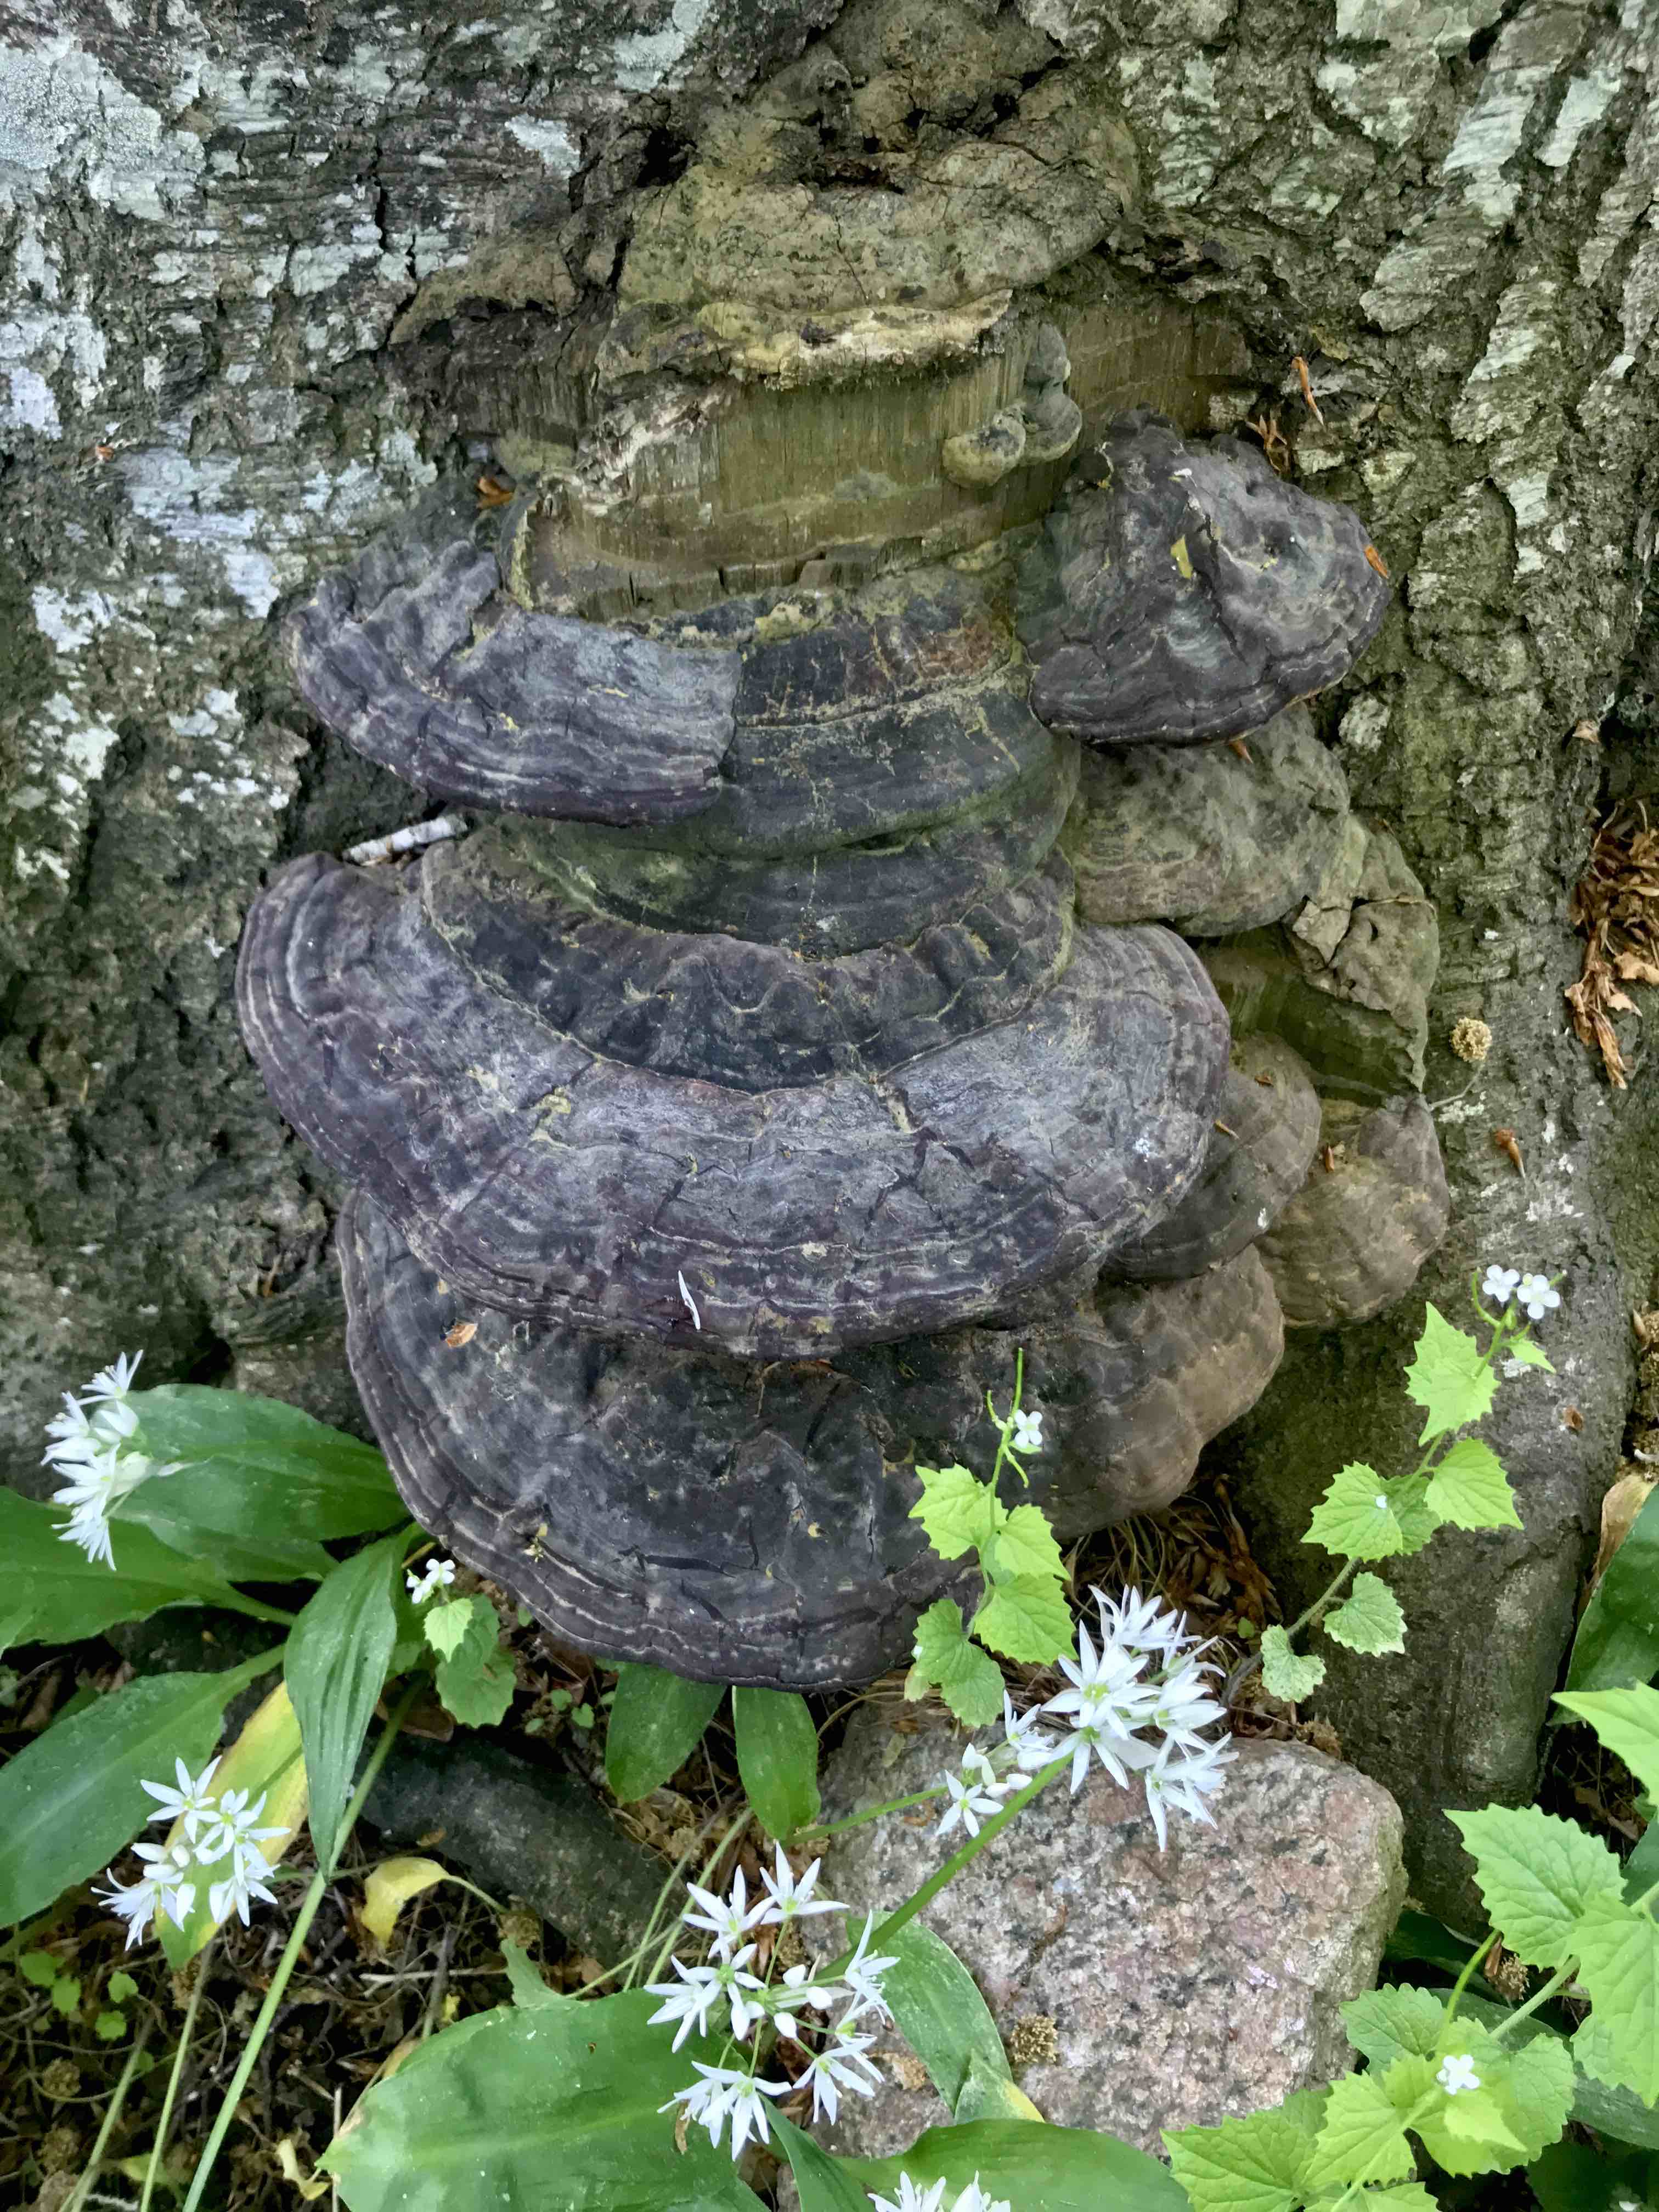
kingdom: Fungi
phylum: Basidiomycota
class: Agaricomycetes
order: Polyporales
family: Polyporaceae
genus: Ganoderma
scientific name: Ganoderma pfeifferi
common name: kobberrød lakporesvamp
